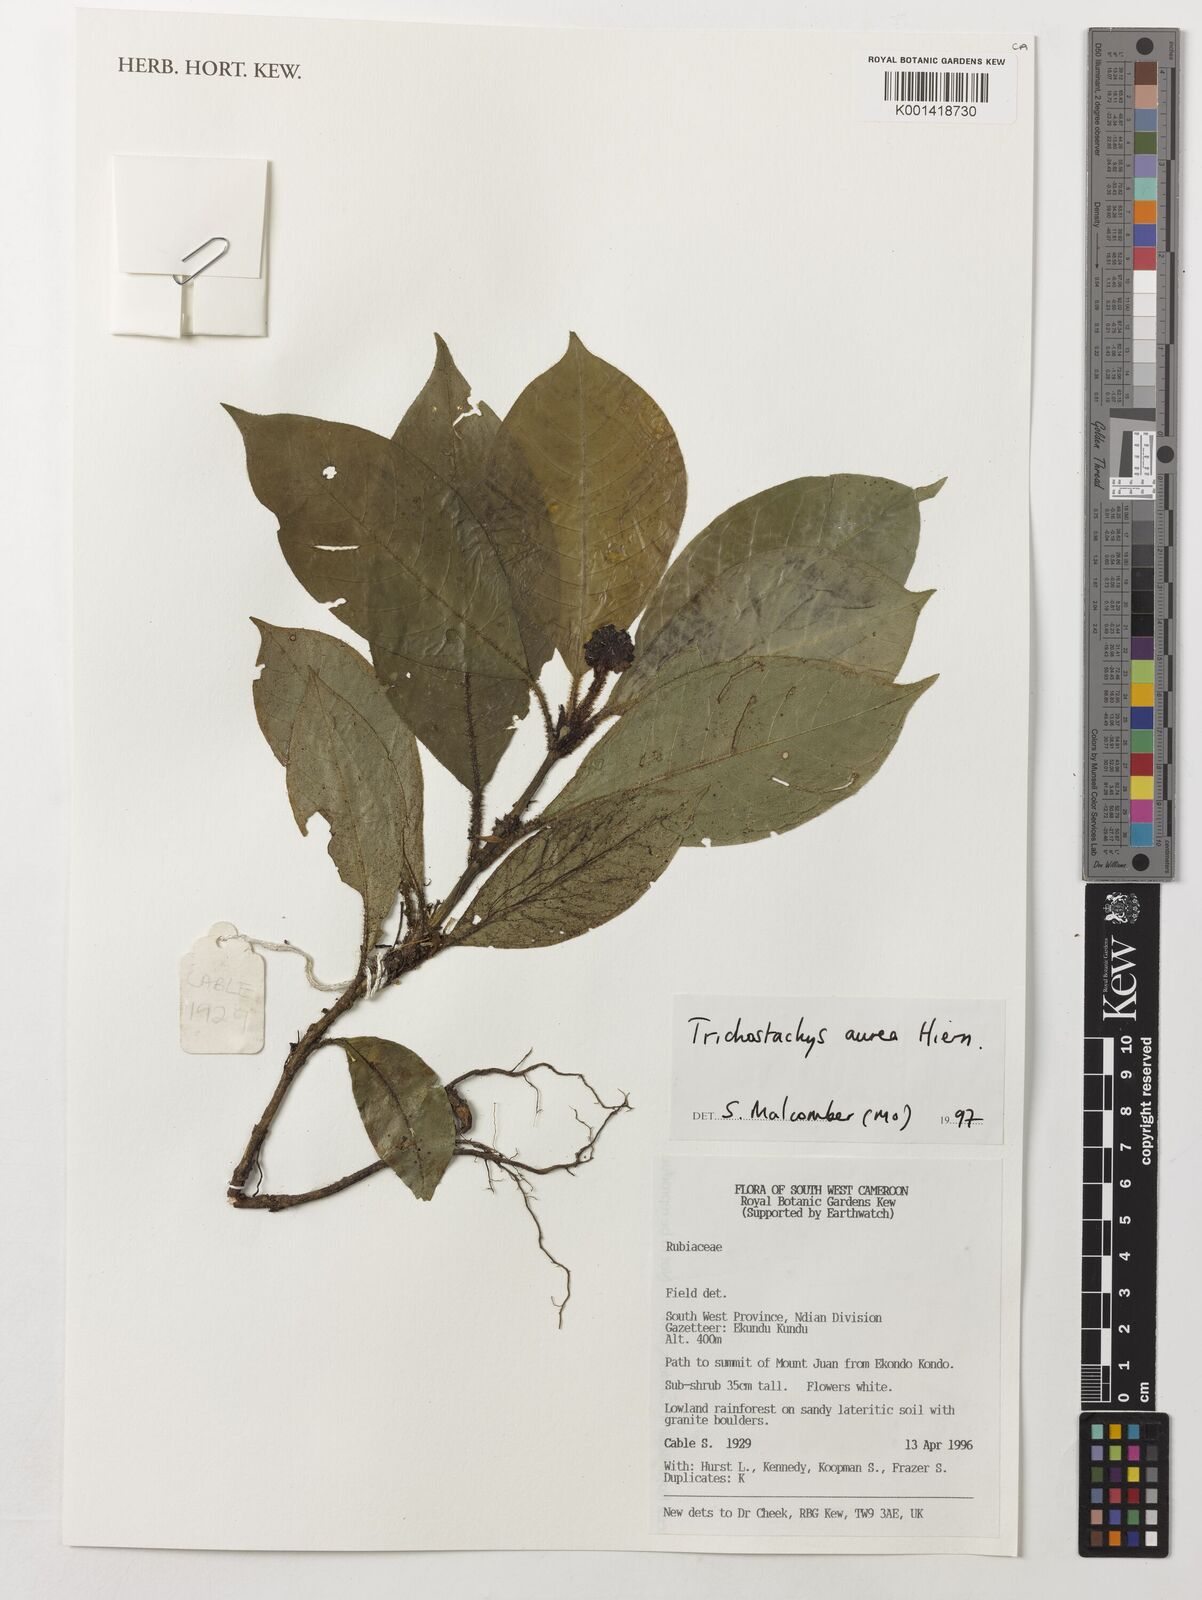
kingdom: Plantae
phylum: Tracheophyta
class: Magnoliopsida
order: Gentianales
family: Rubiaceae
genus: Trichostachys
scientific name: Trichostachys aurea
